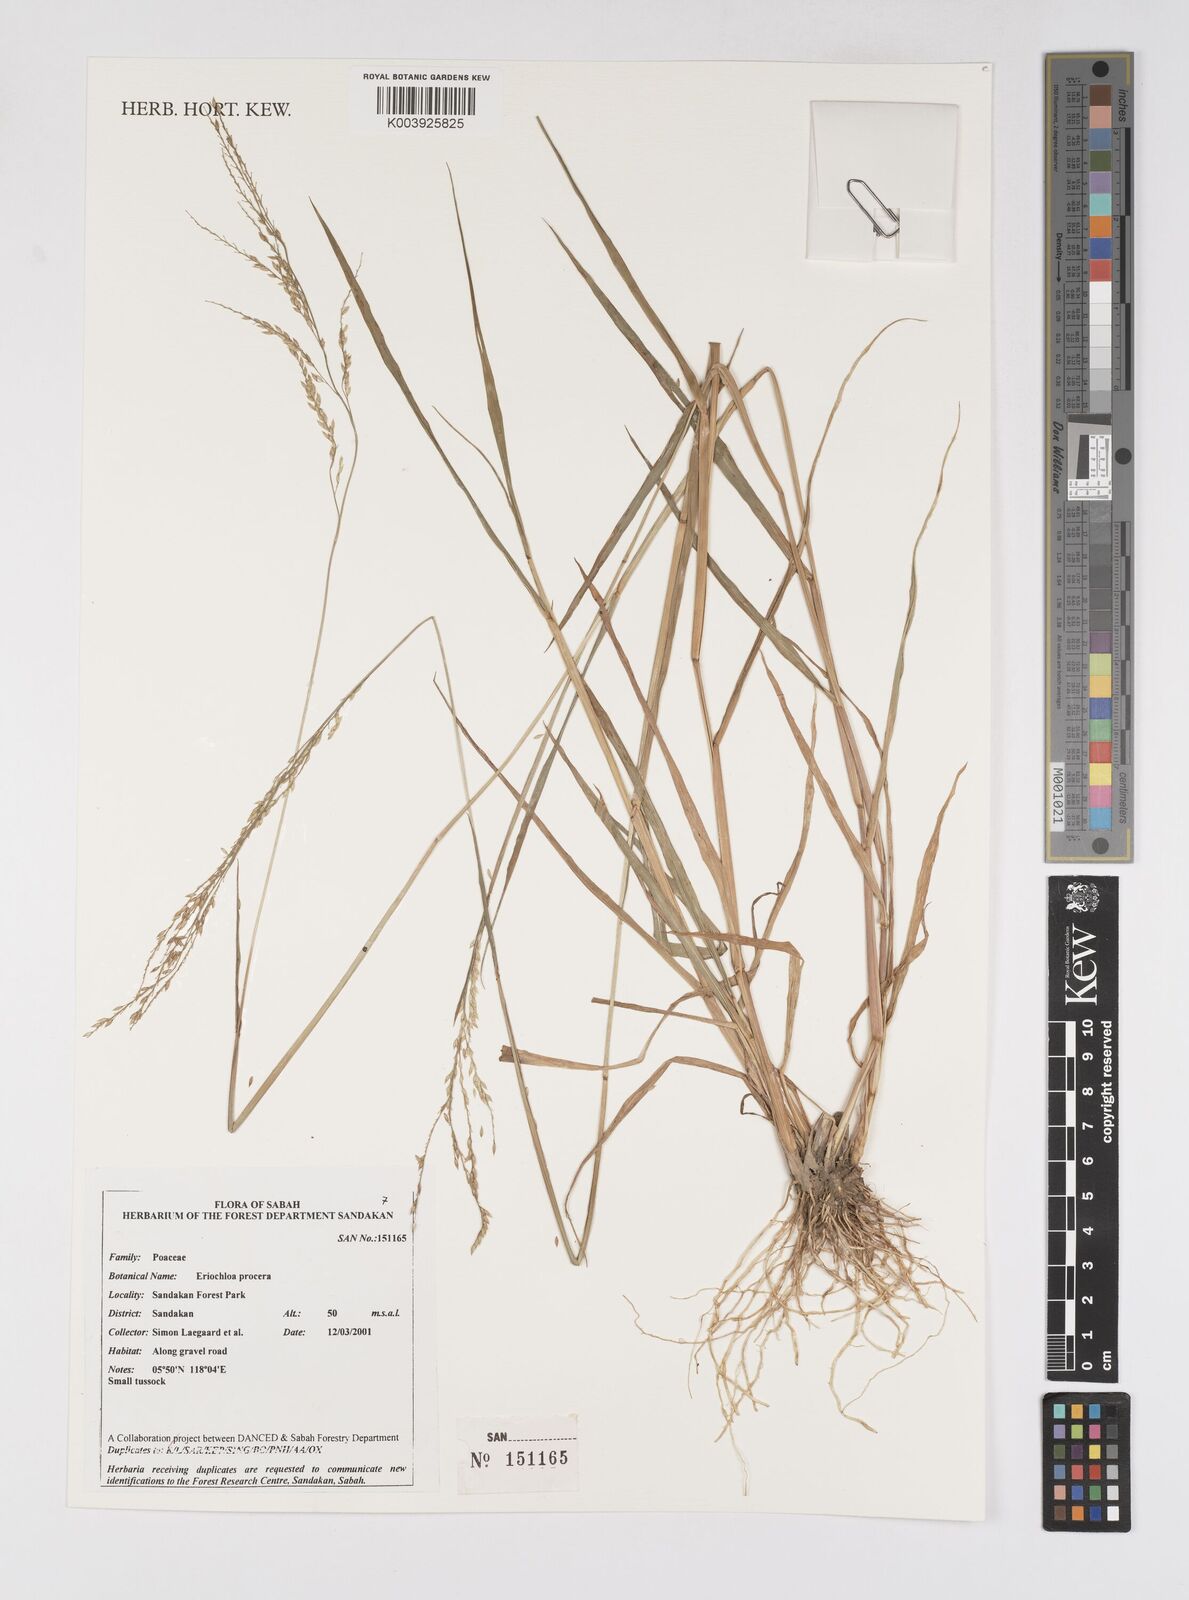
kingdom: Plantae
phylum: Tracheophyta
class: Liliopsida
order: Poales
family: Poaceae
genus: Eriochloa
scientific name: Eriochloa procera
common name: Spring grass
